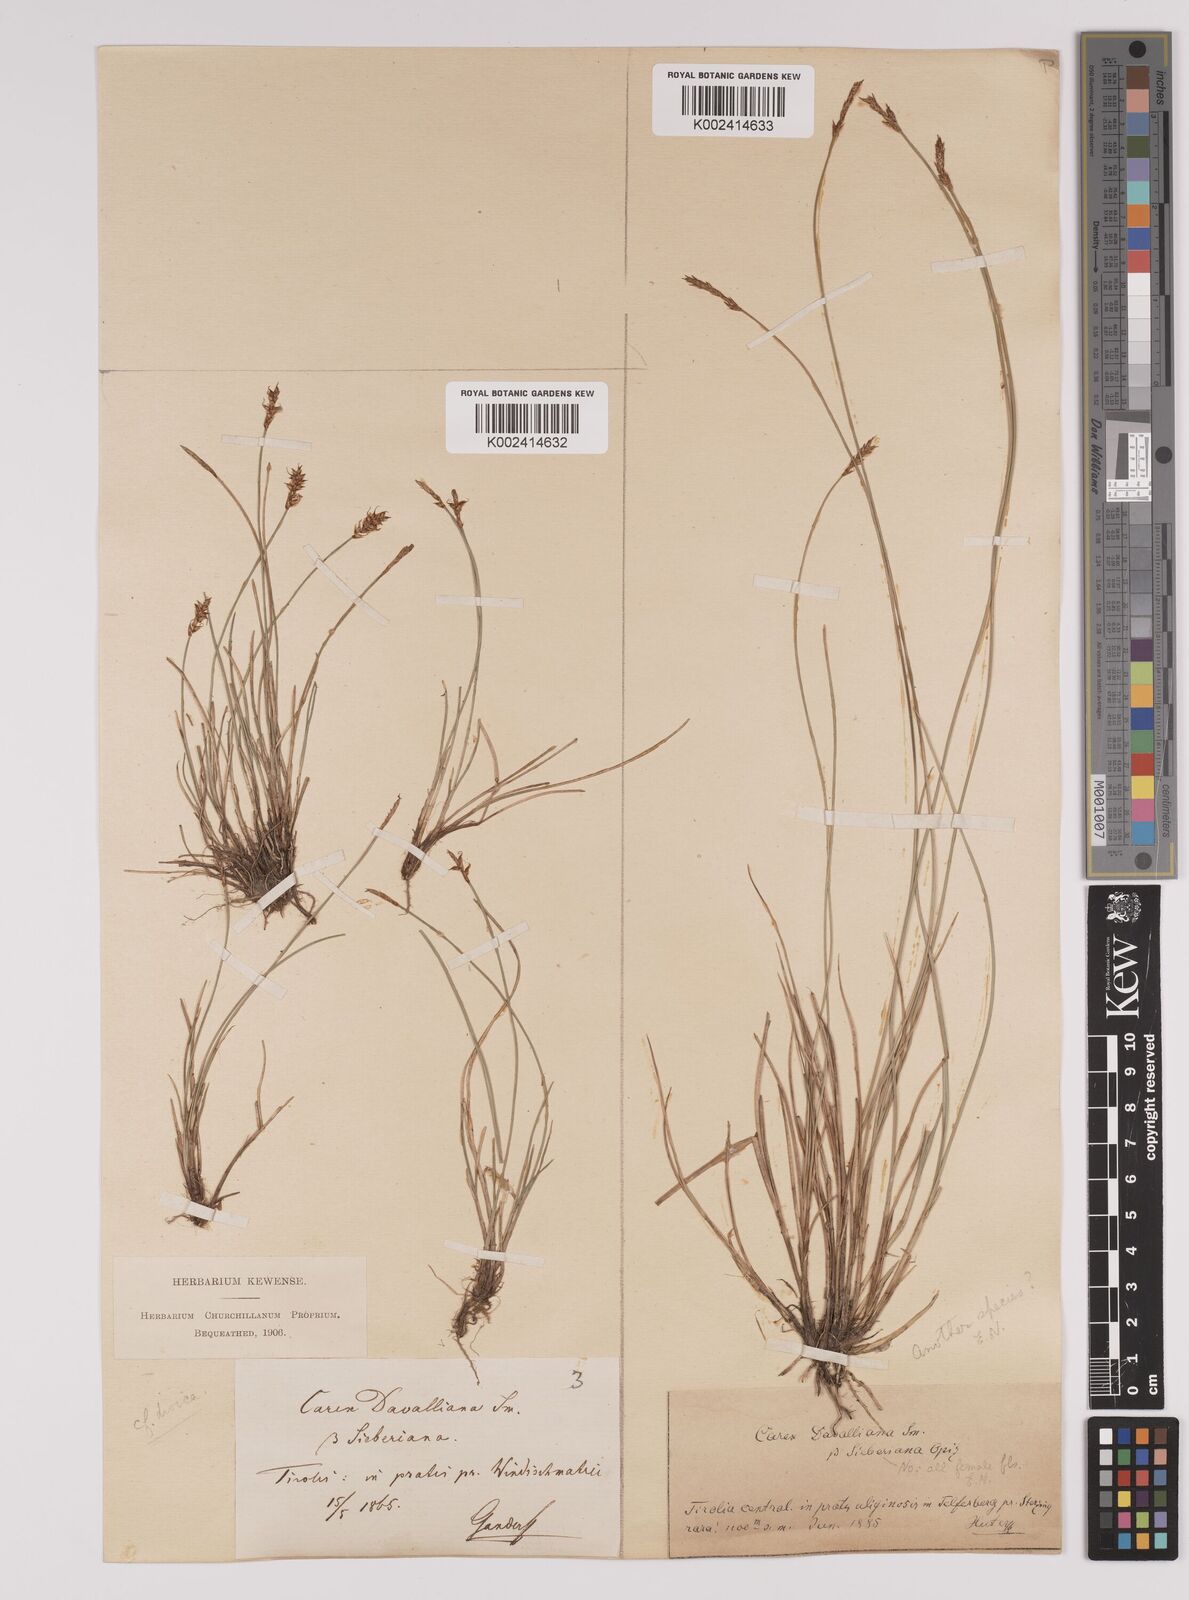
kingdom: Plantae
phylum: Tracheophyta
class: Liliopsida
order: Poales
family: Cyperaceae
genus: Carex
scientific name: Carex davalliana
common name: Davall's sedge
